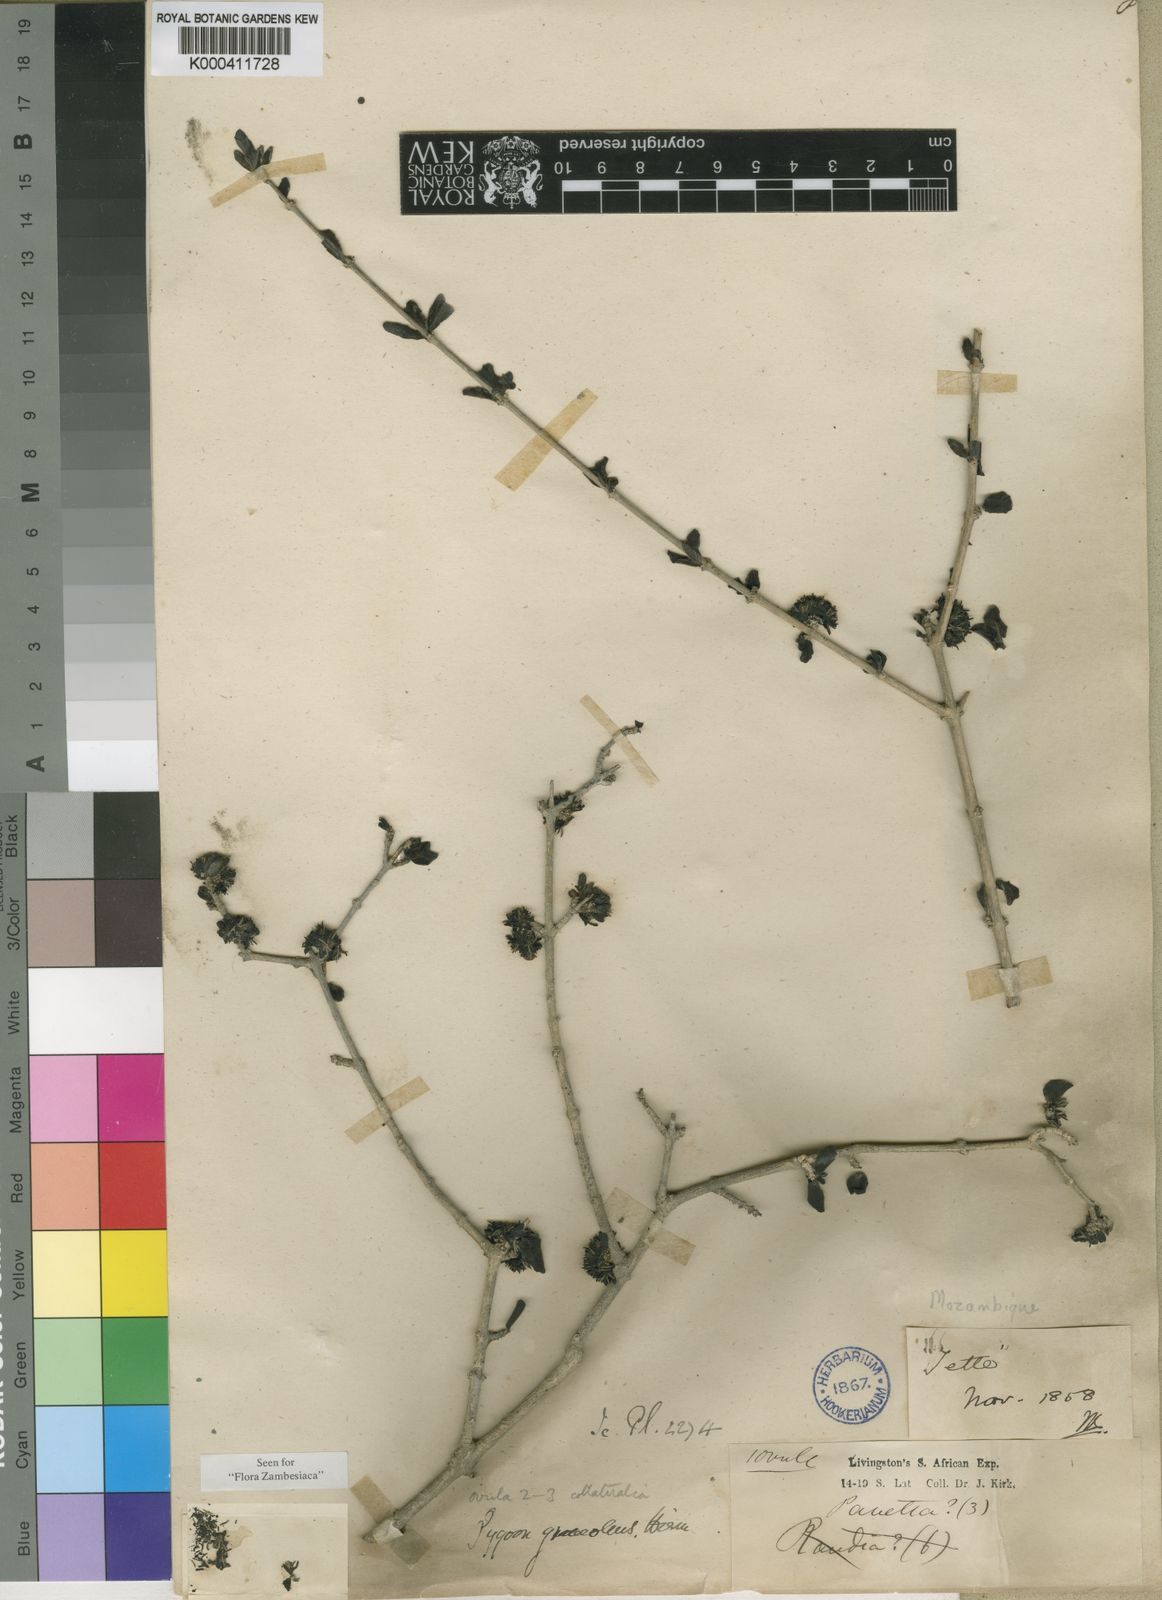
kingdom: Plantae
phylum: Tracheophyta
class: Magnoliopsida
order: Gentianales
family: Rubiaceae
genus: Coptosperma
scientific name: Coptosperma graveolens
